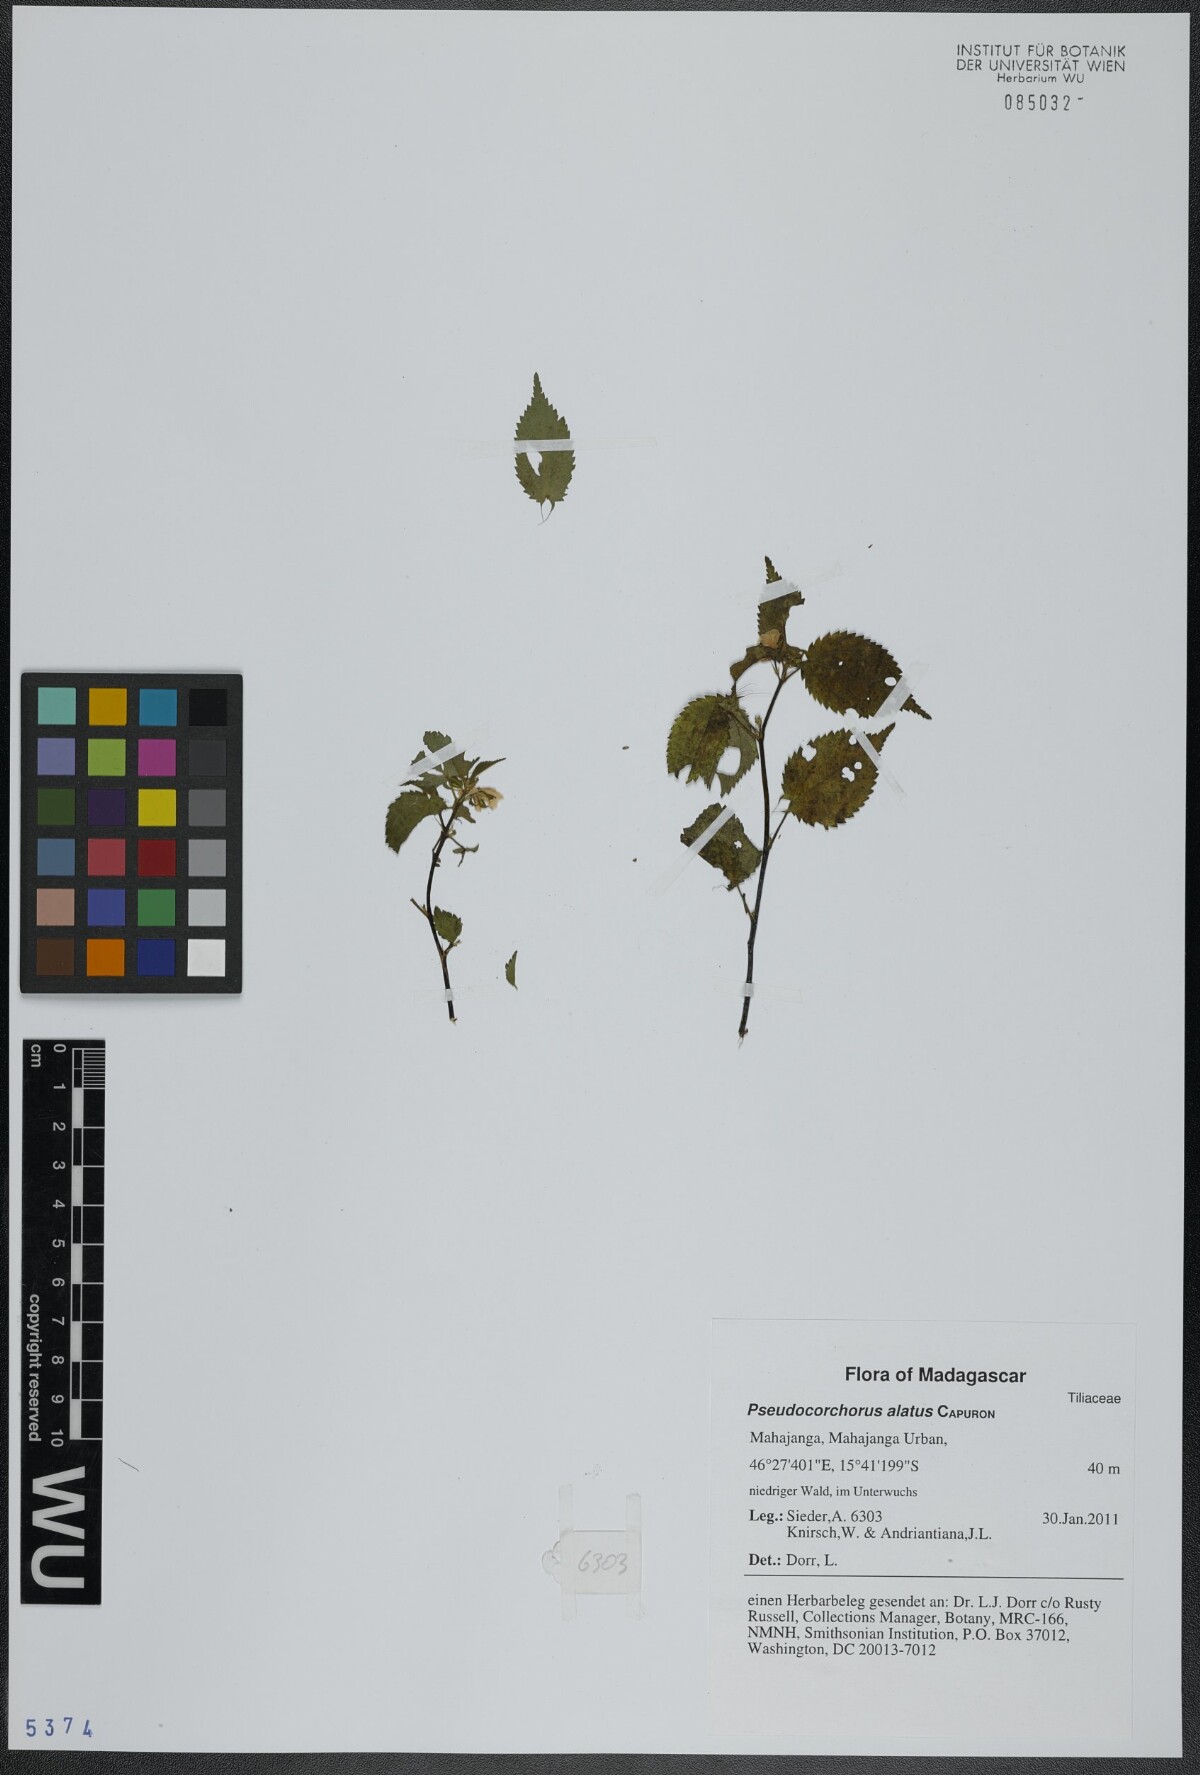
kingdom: Plantae
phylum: Tracheophyta
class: Magnoliopsida
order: Malvales
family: Malvaceae
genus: Pseudocorchorus
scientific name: Pseudocorchorus alatus
